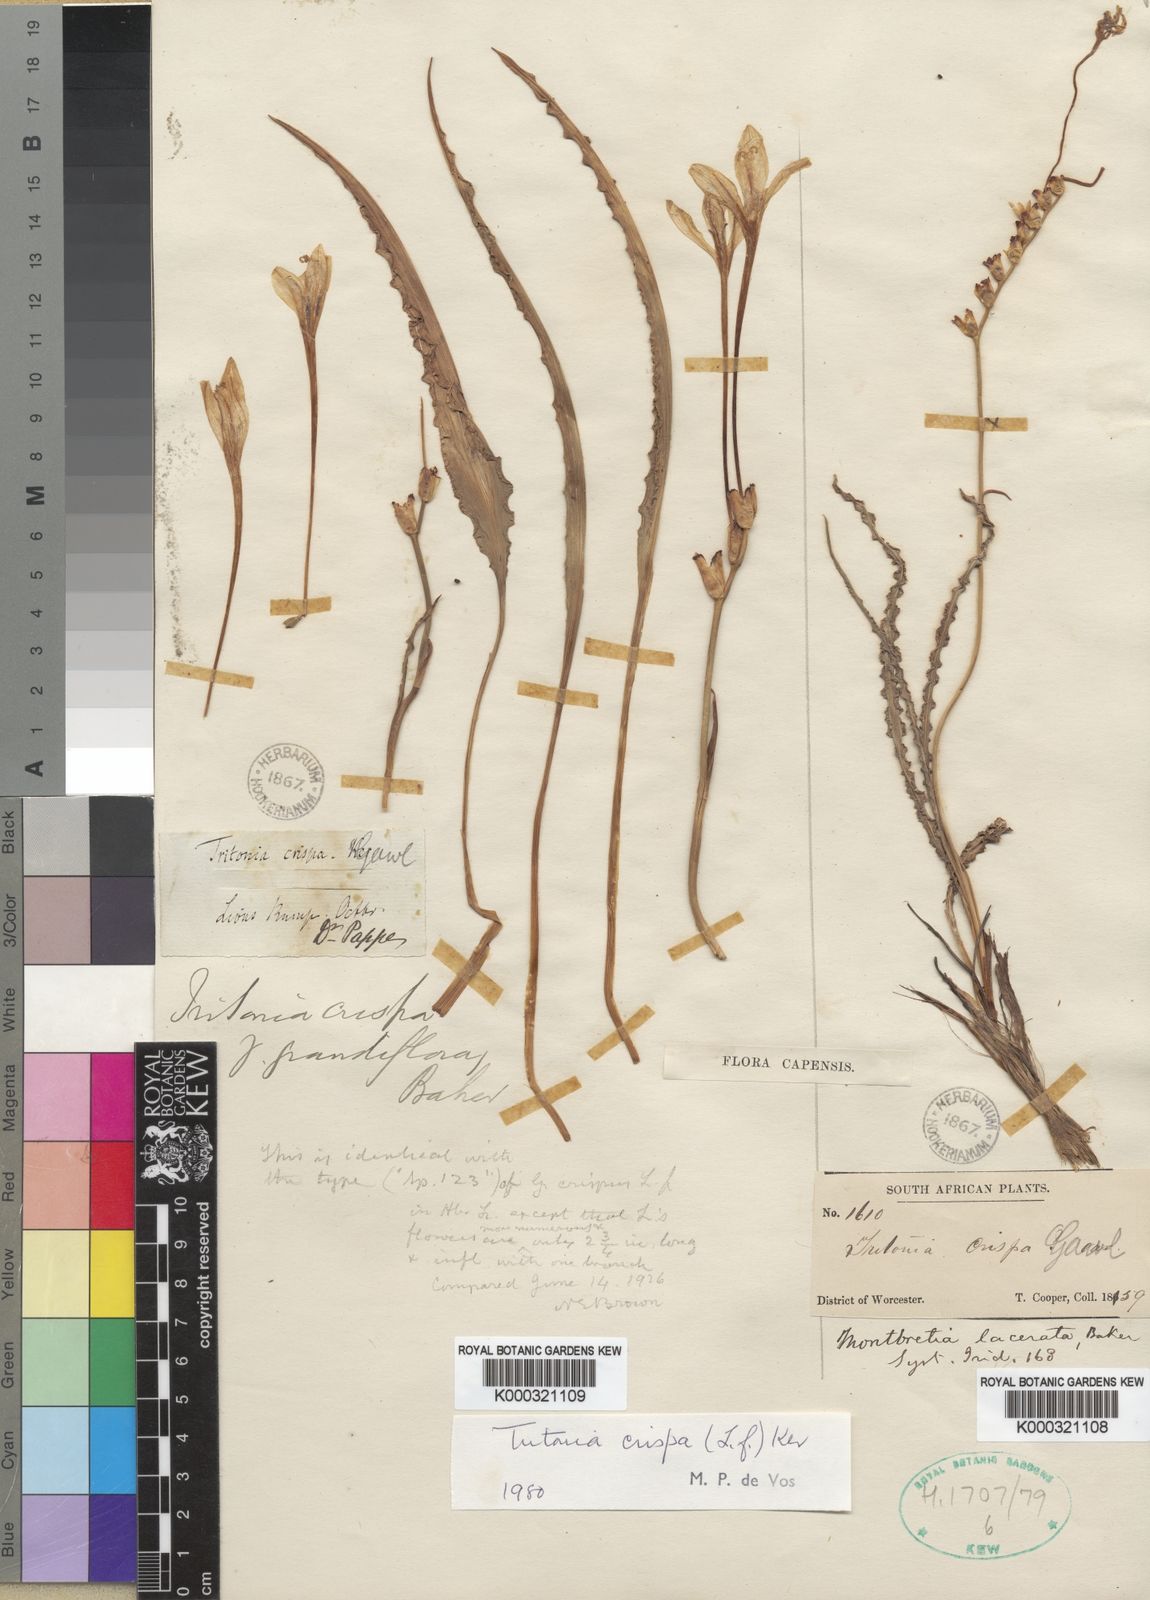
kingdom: Plantae
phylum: Tracheophyta
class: Liliopsida
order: Asparagales
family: Iridaceae
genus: Tritonia
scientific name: Tritonia undulata
